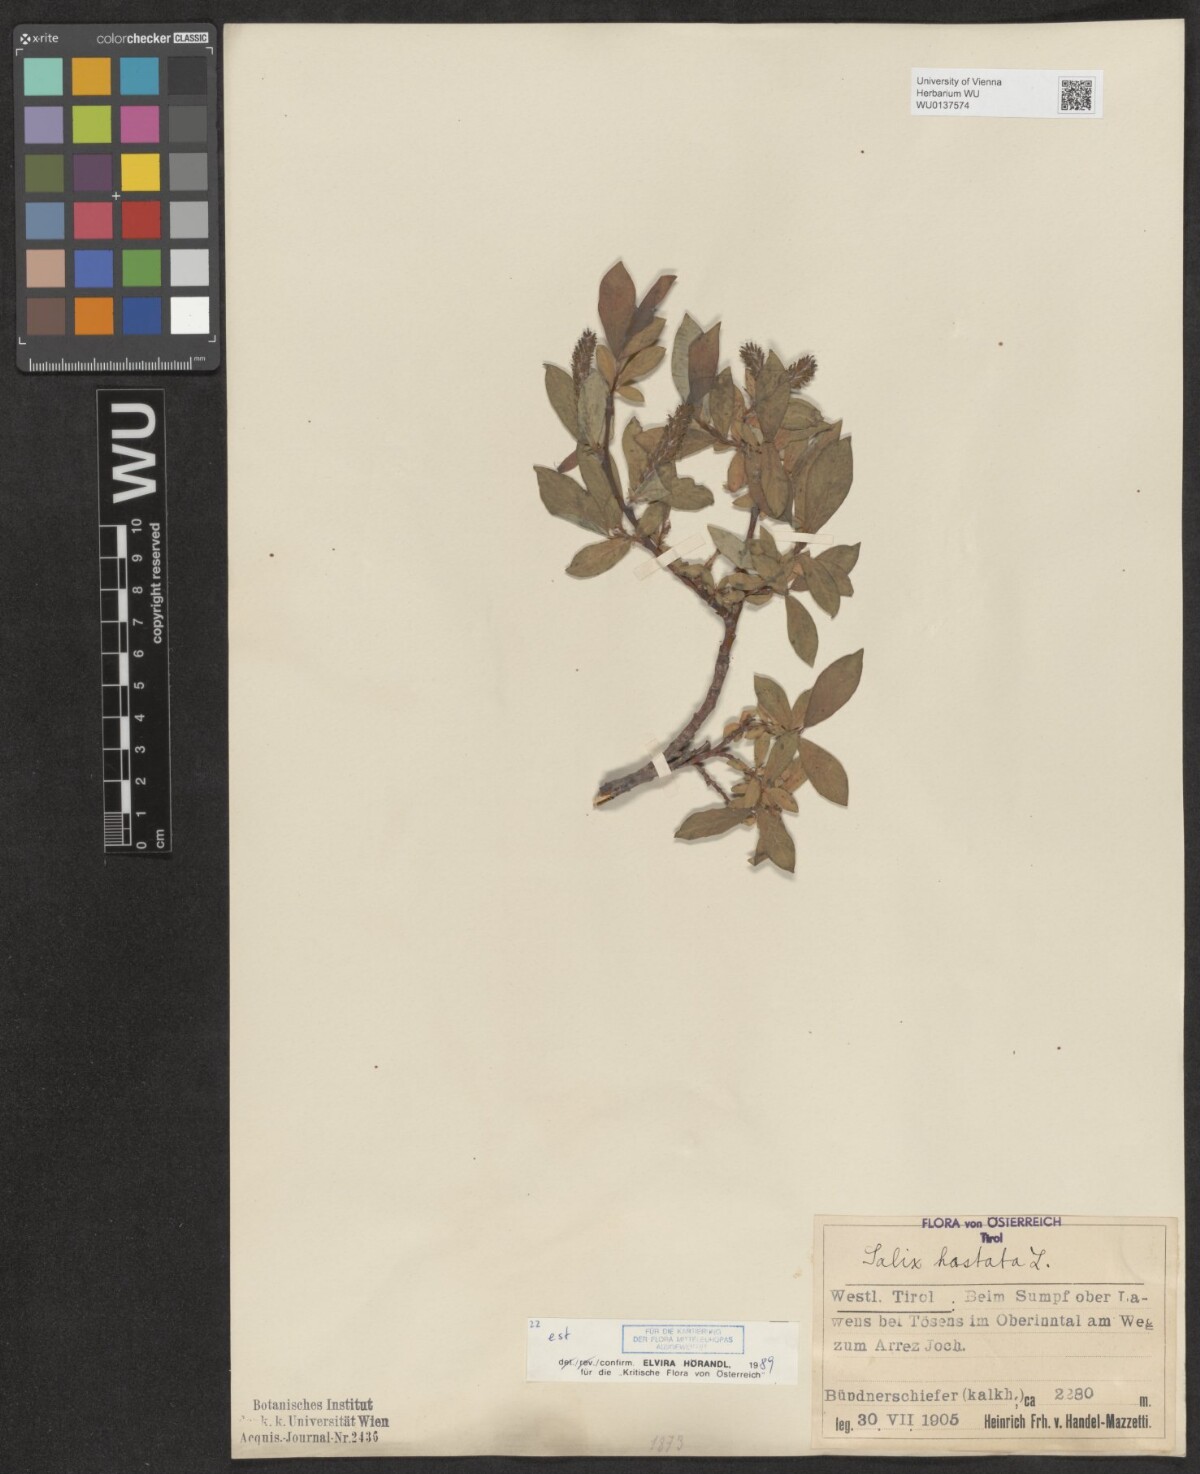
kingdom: Plantae
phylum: Tracheophyta
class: Magnoliopsida
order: Malpighiales
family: Salicaceae
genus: Salix
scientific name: Salix hastata
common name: Halberd willow
